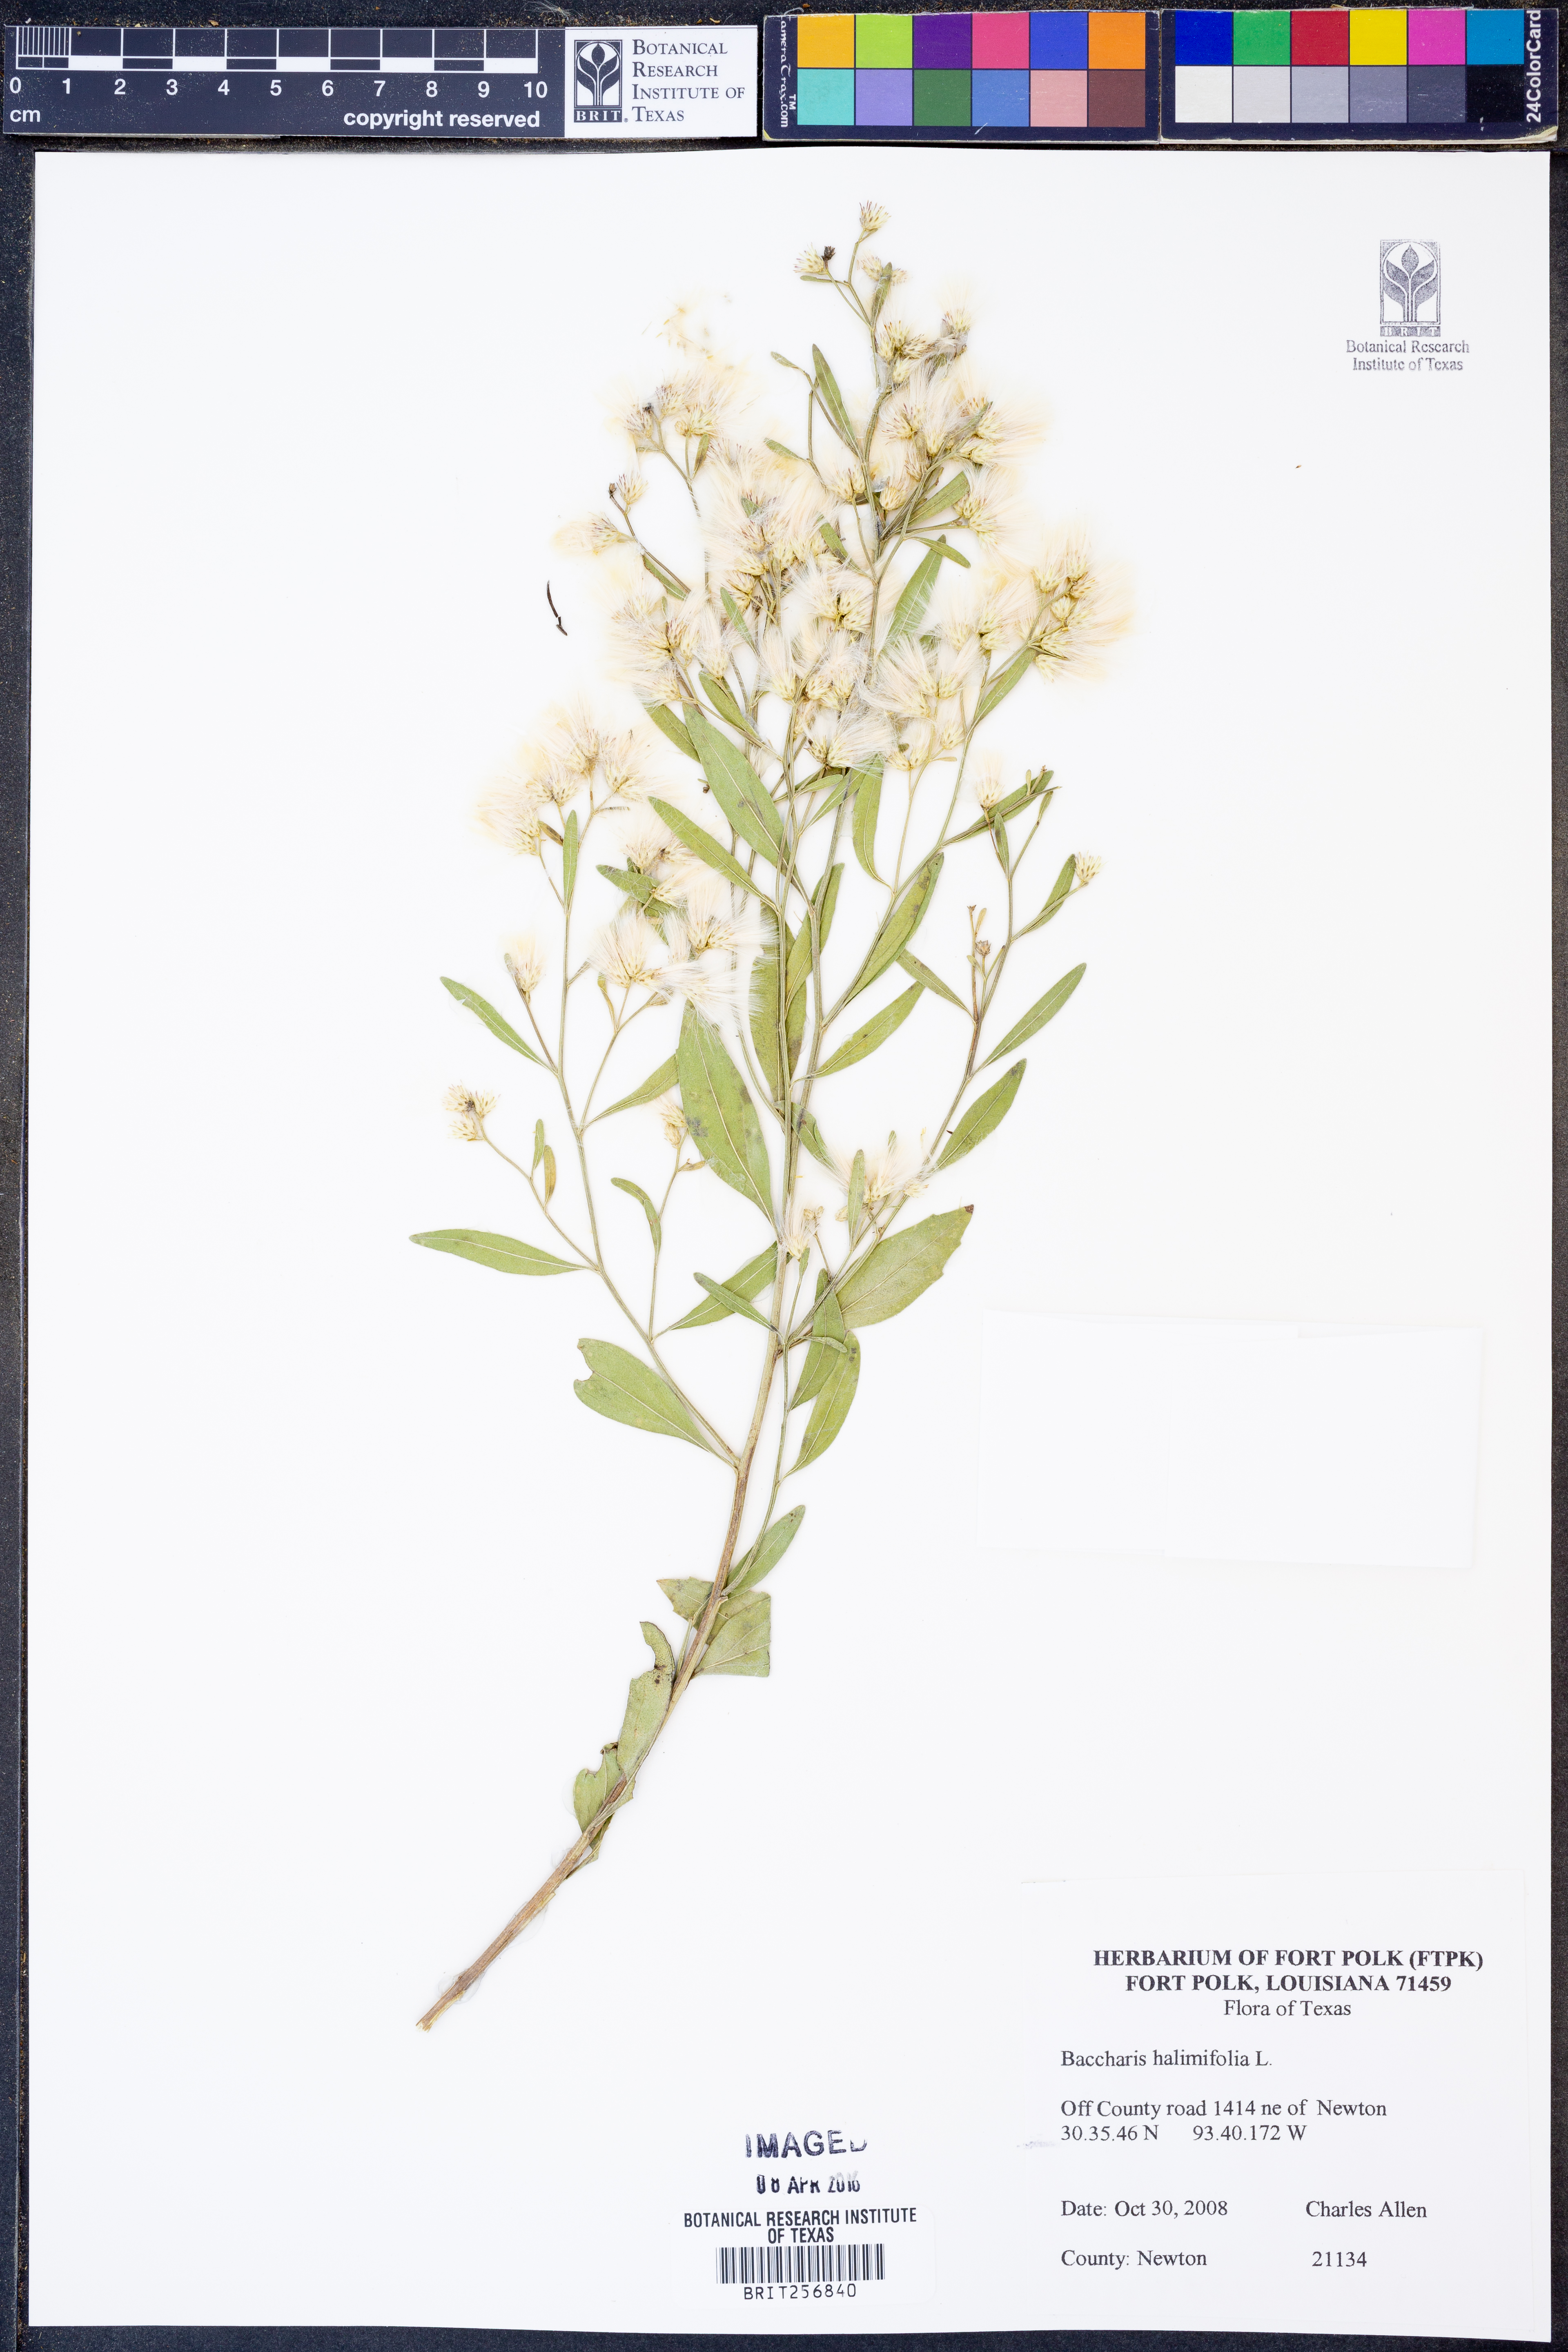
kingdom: Plantae
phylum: Tracheophyta
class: Magnoliopsida
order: Asterales
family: Asteraceae
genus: Nidorella
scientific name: Nidorella ivifolia
